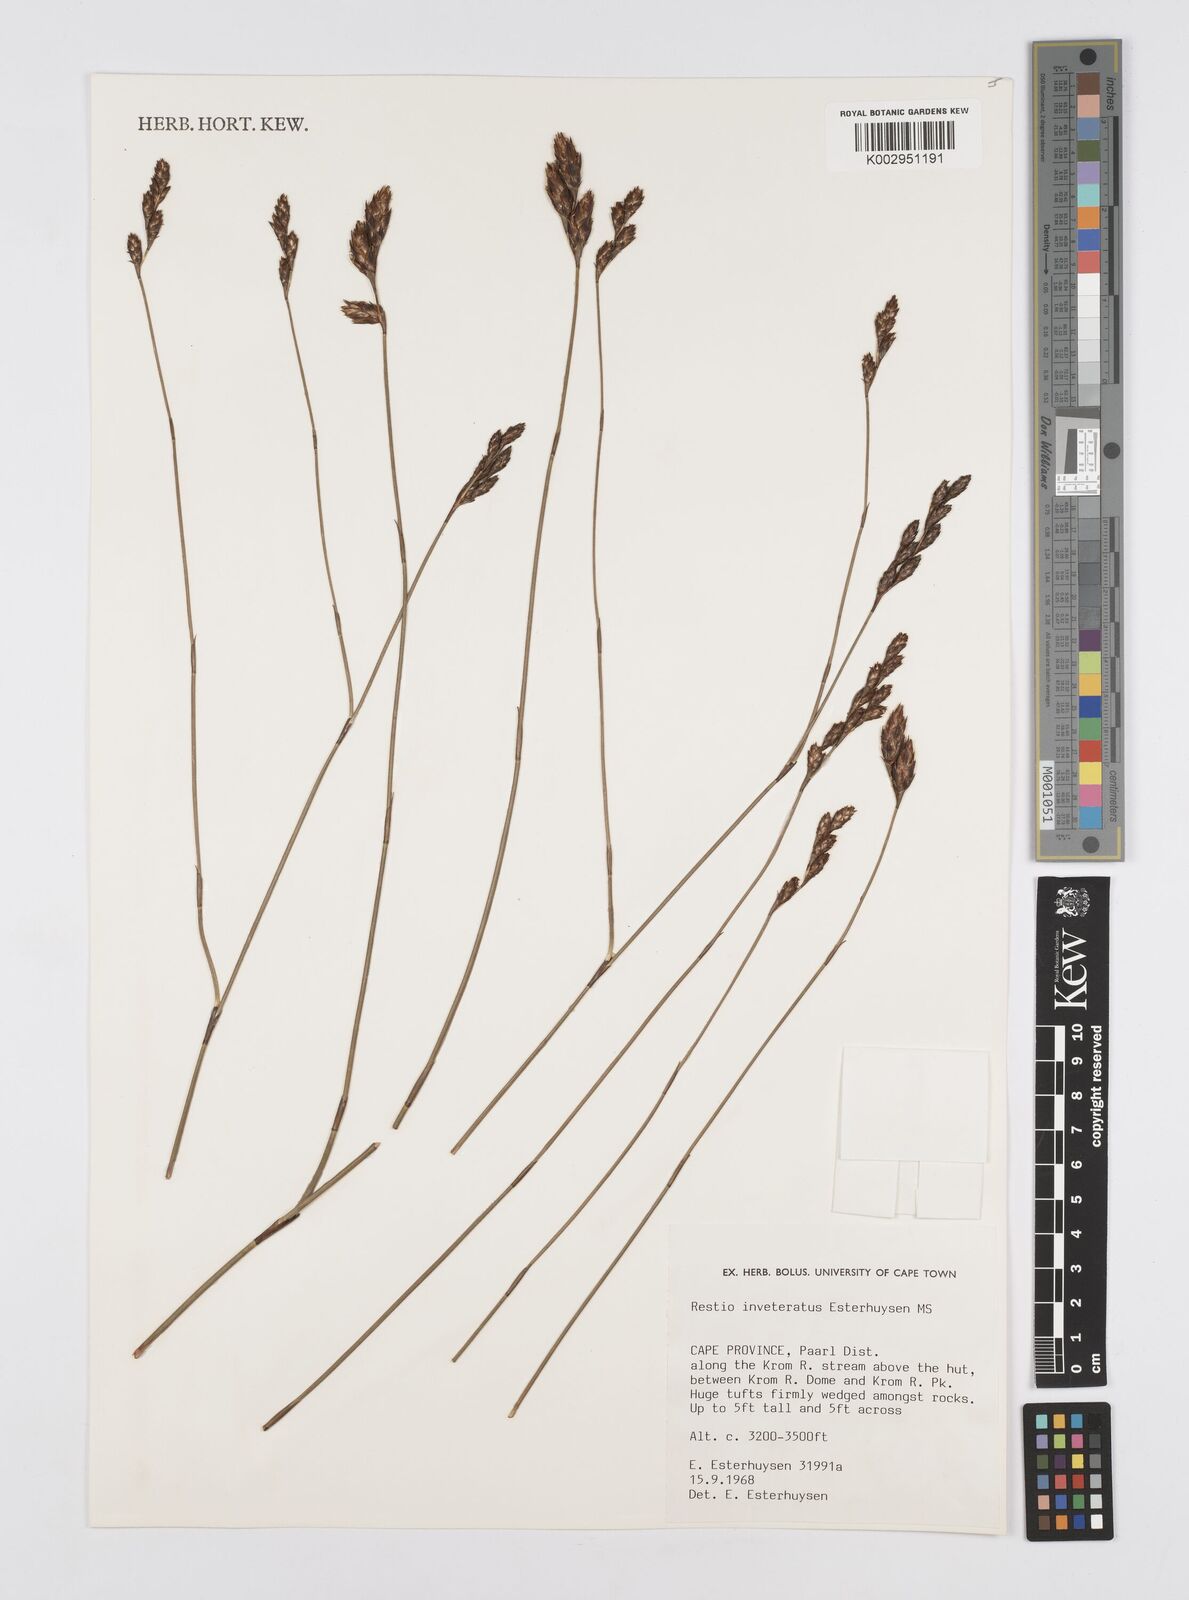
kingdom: Plantae
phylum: Tracheophyta
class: Liliopsida
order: Poales
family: Restionaceae
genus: Restio
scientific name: Restio inveteratus
